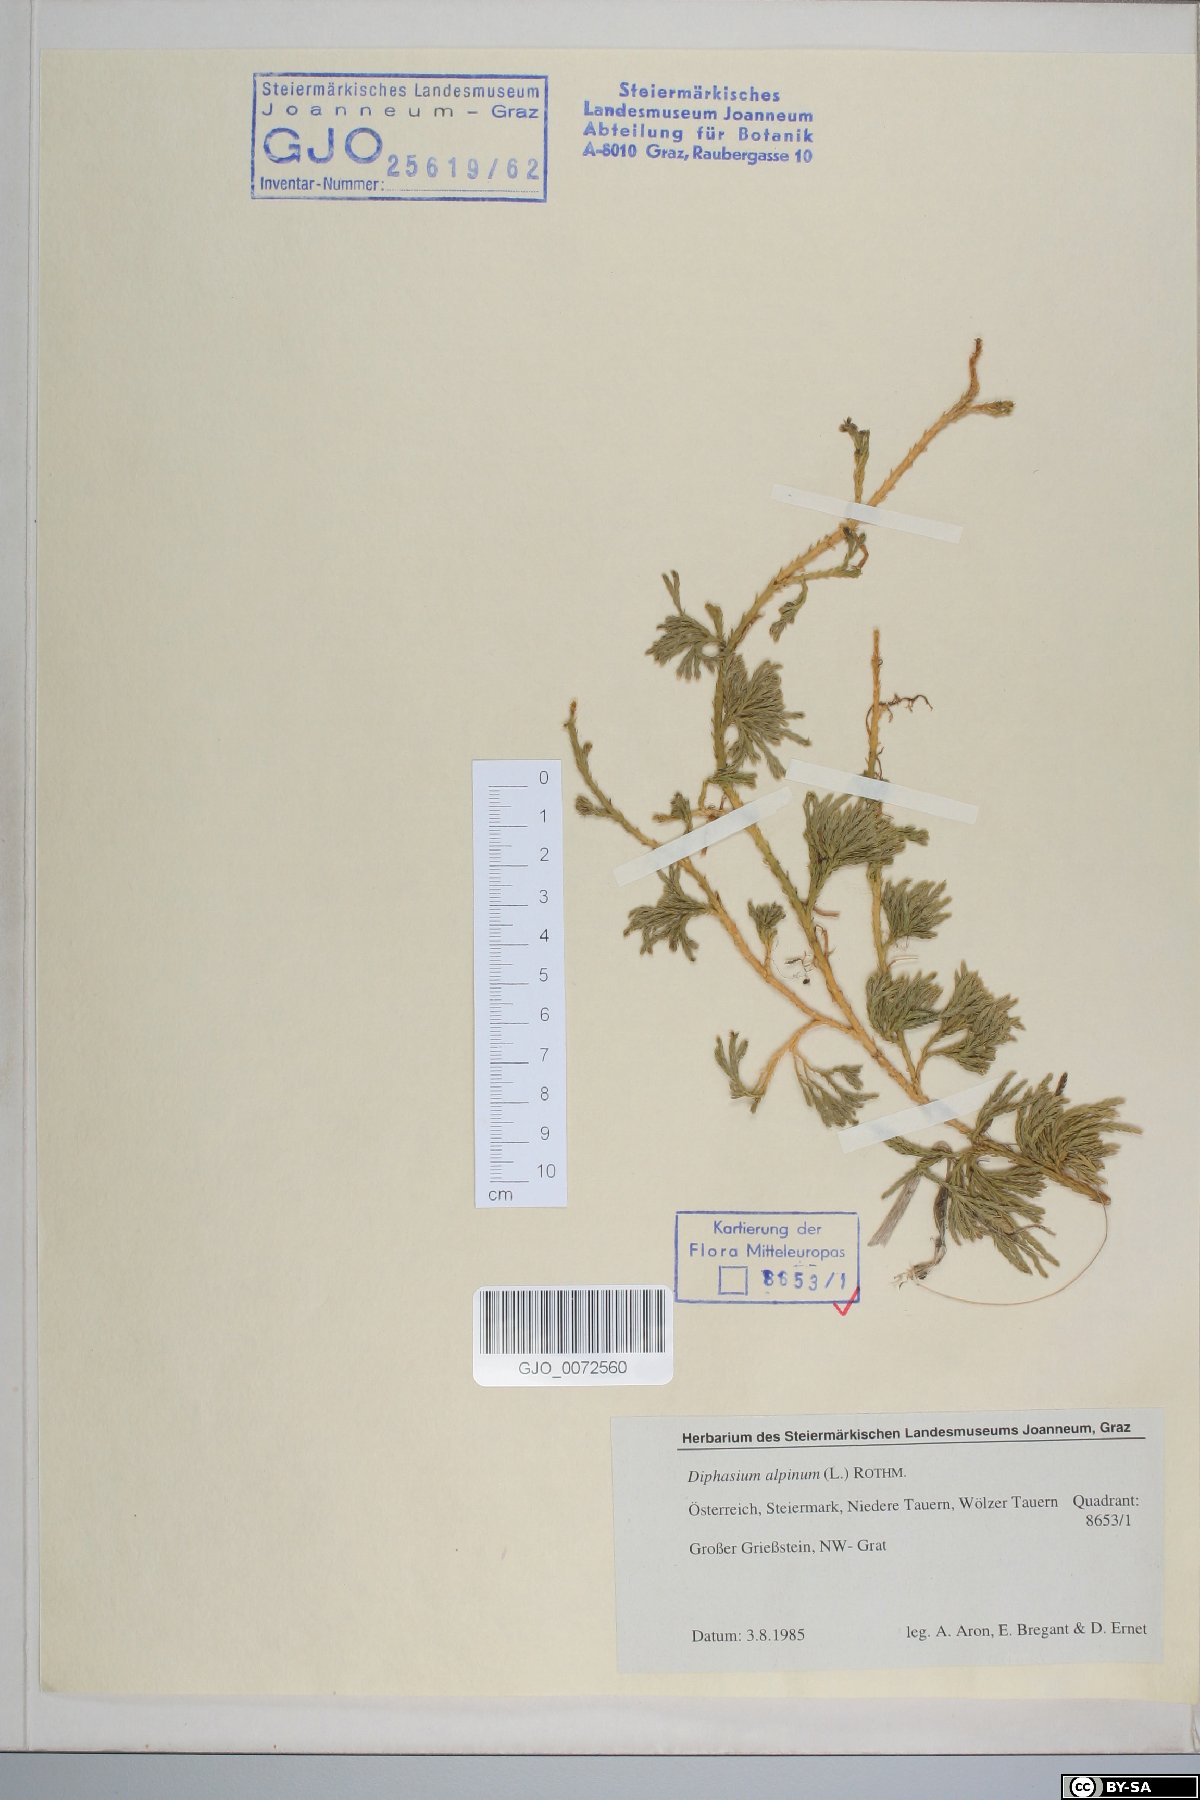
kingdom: Plantae
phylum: Tracheophyta
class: Lycopodiopsida
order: Lycopodiales
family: Lycopodiaceae
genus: Diphasiastrum
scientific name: Diphasiastrum alpinum
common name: Alpine clubmoss
